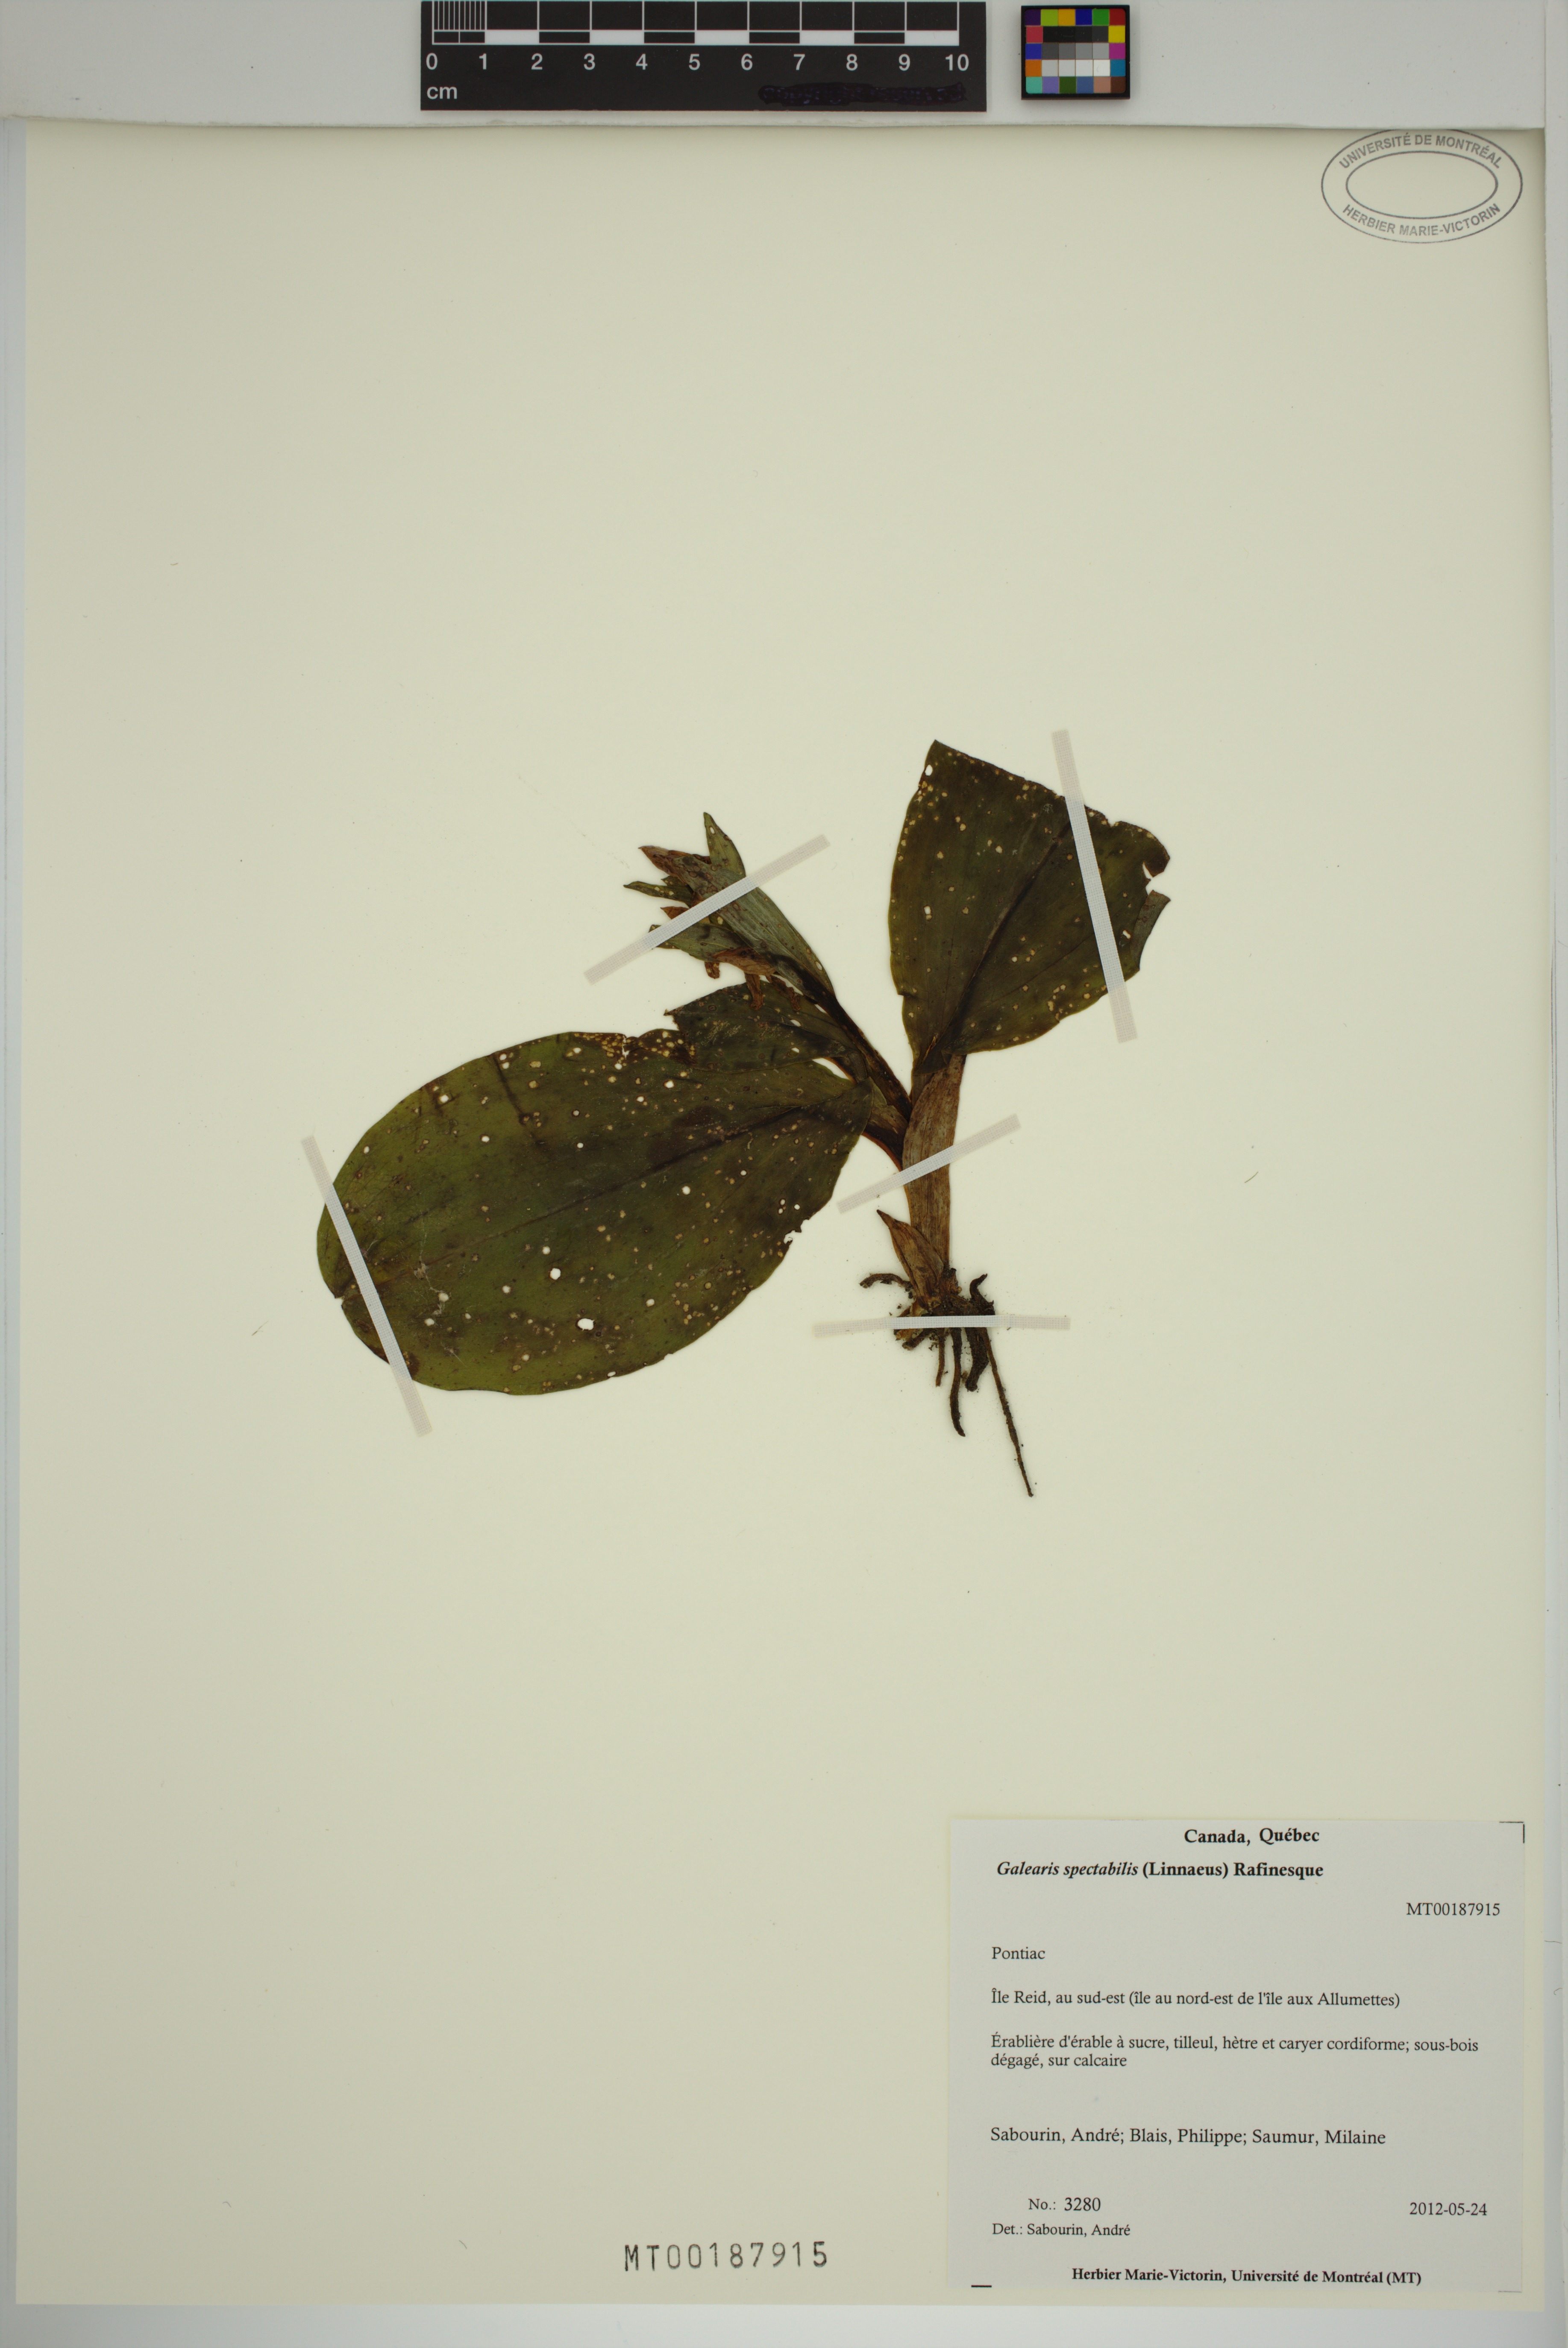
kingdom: Plantae
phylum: Tracheophyta
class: Liliopsida
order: Asparagales
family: Orchidaceae
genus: Galearis
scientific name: Galearis spectabilis
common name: Purple-hooded orchis
